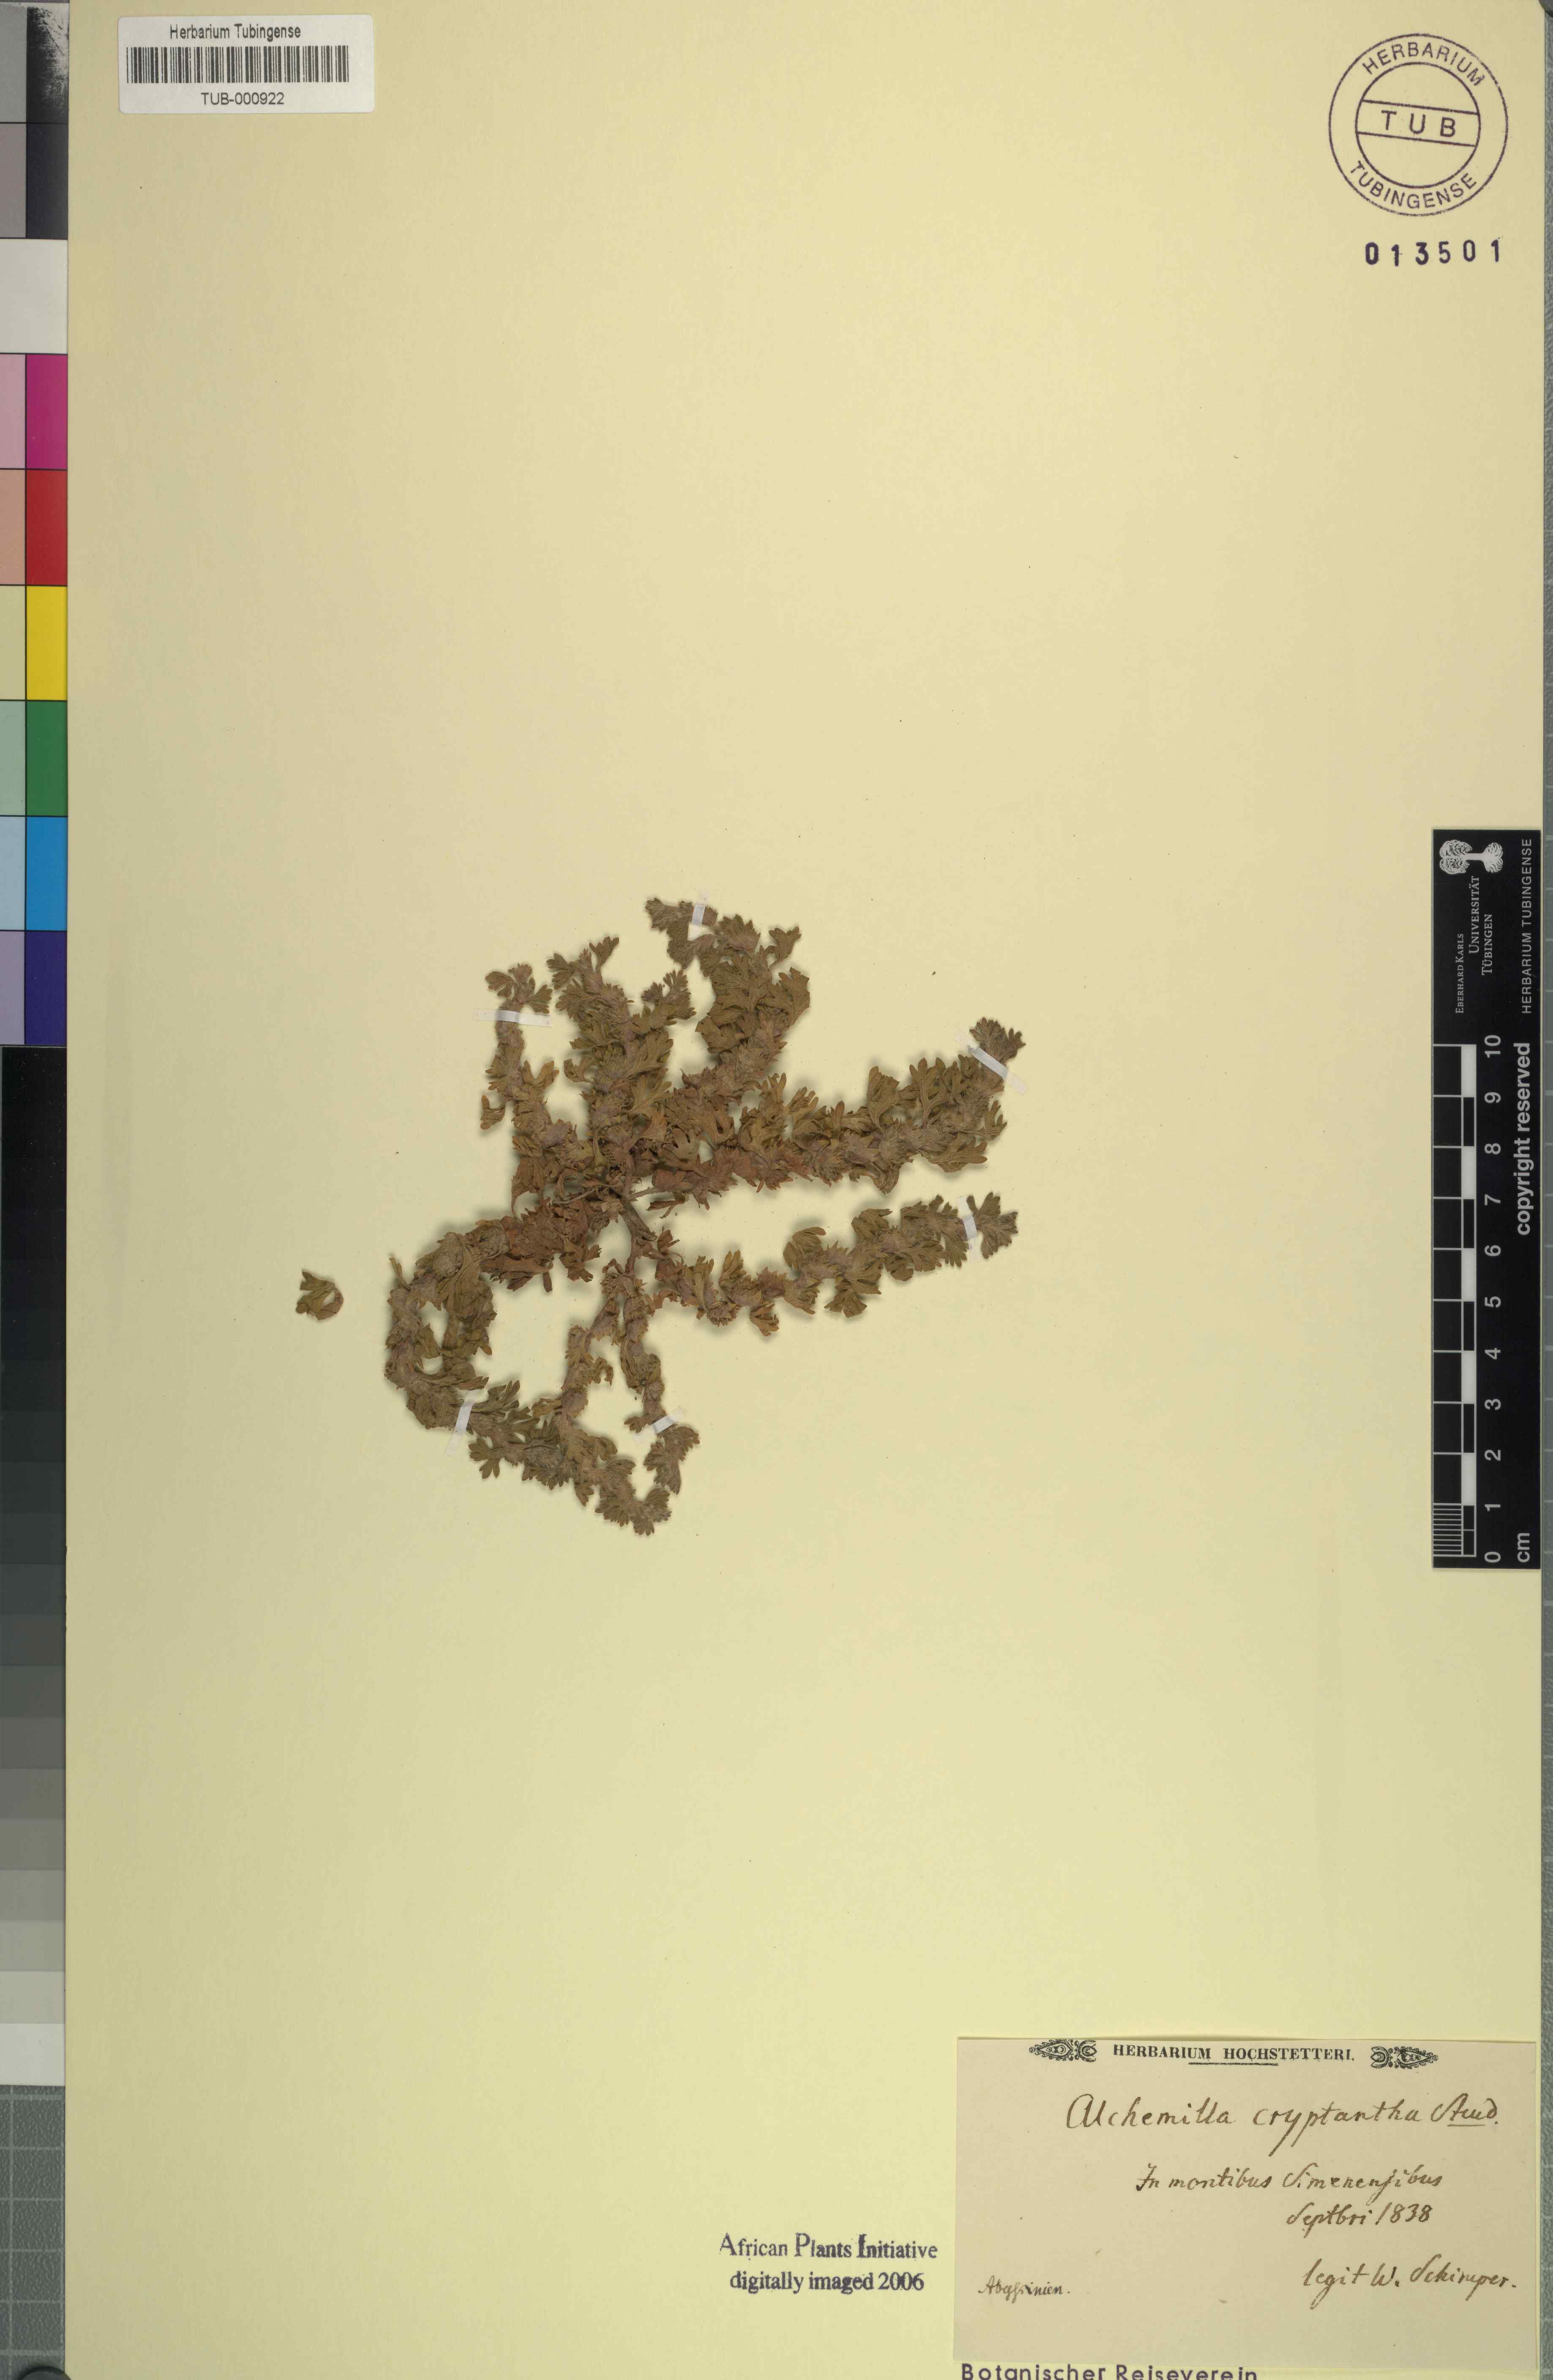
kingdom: Plantae
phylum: Tracheophyta
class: Magnoliopsida
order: Rosales
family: Rosaceae
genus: Alchemilla
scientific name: Alchemilla cryptantha
